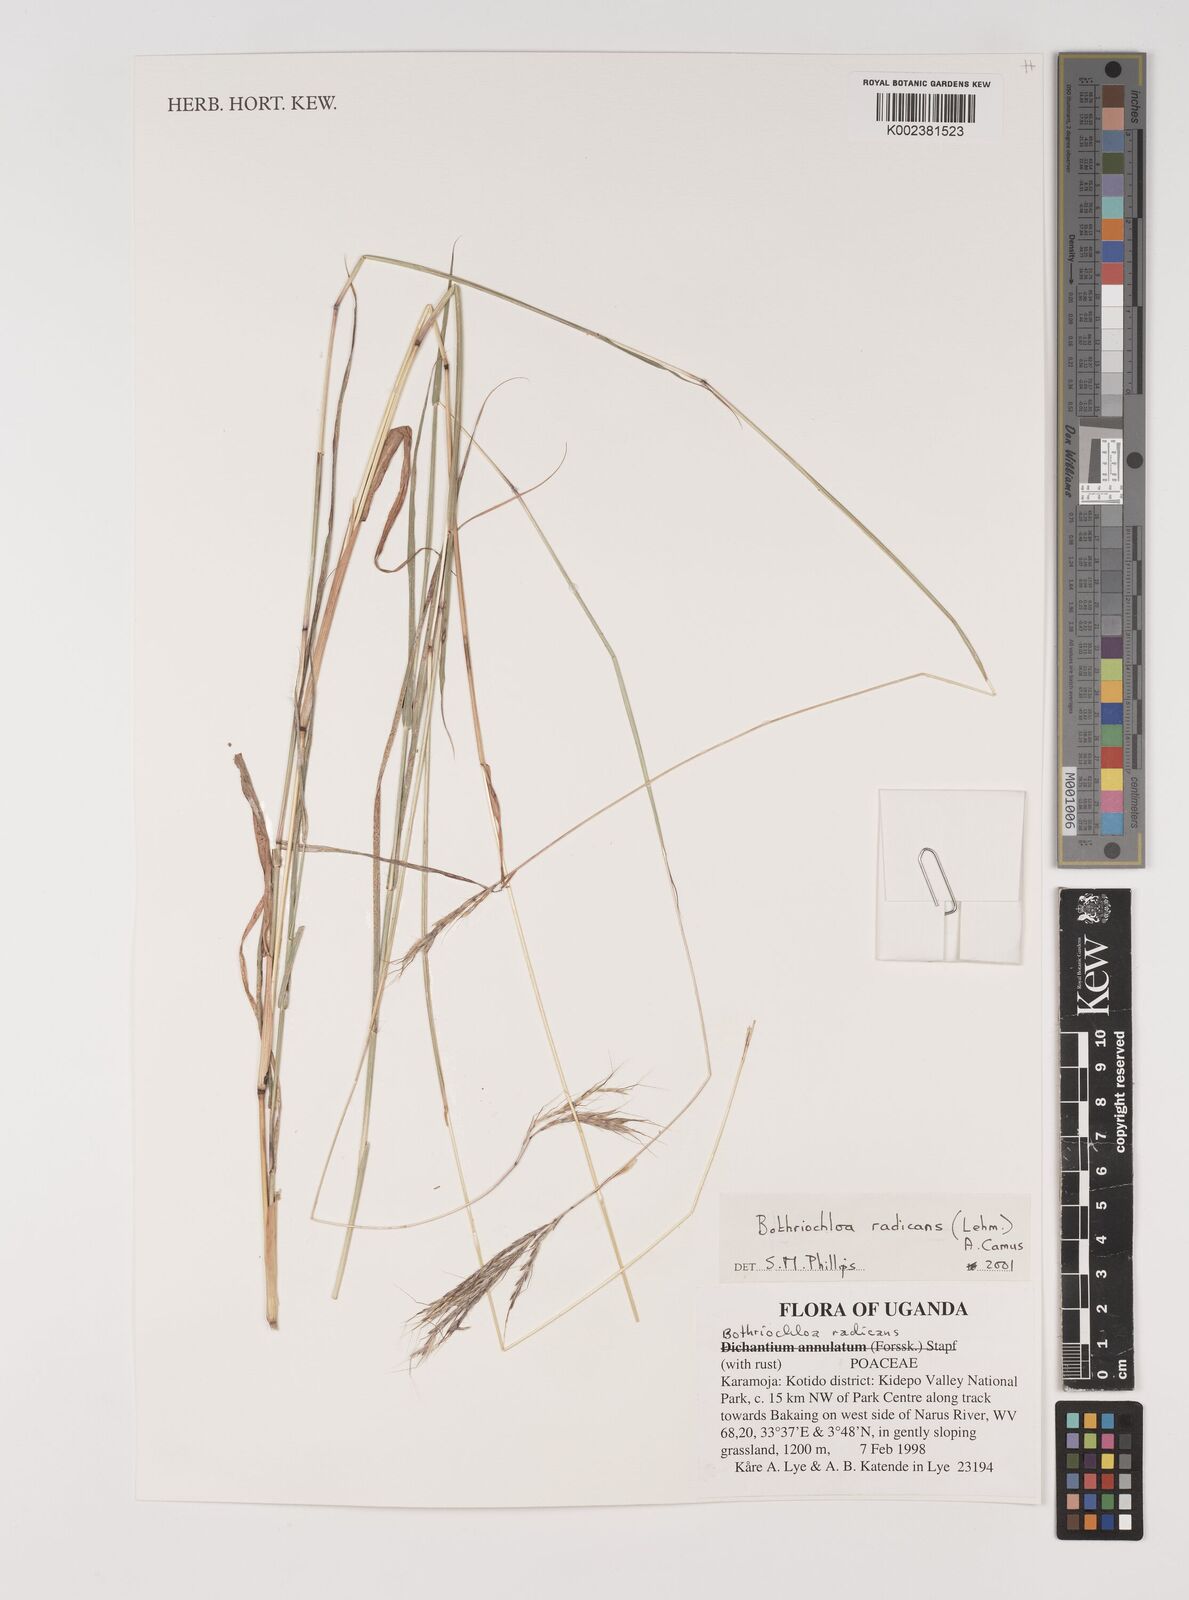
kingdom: Plantae
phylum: Tracheophyta
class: Liliopsida
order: Poales
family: Poaceae
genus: Bothriochloa
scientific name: Bothriochloa radicans
